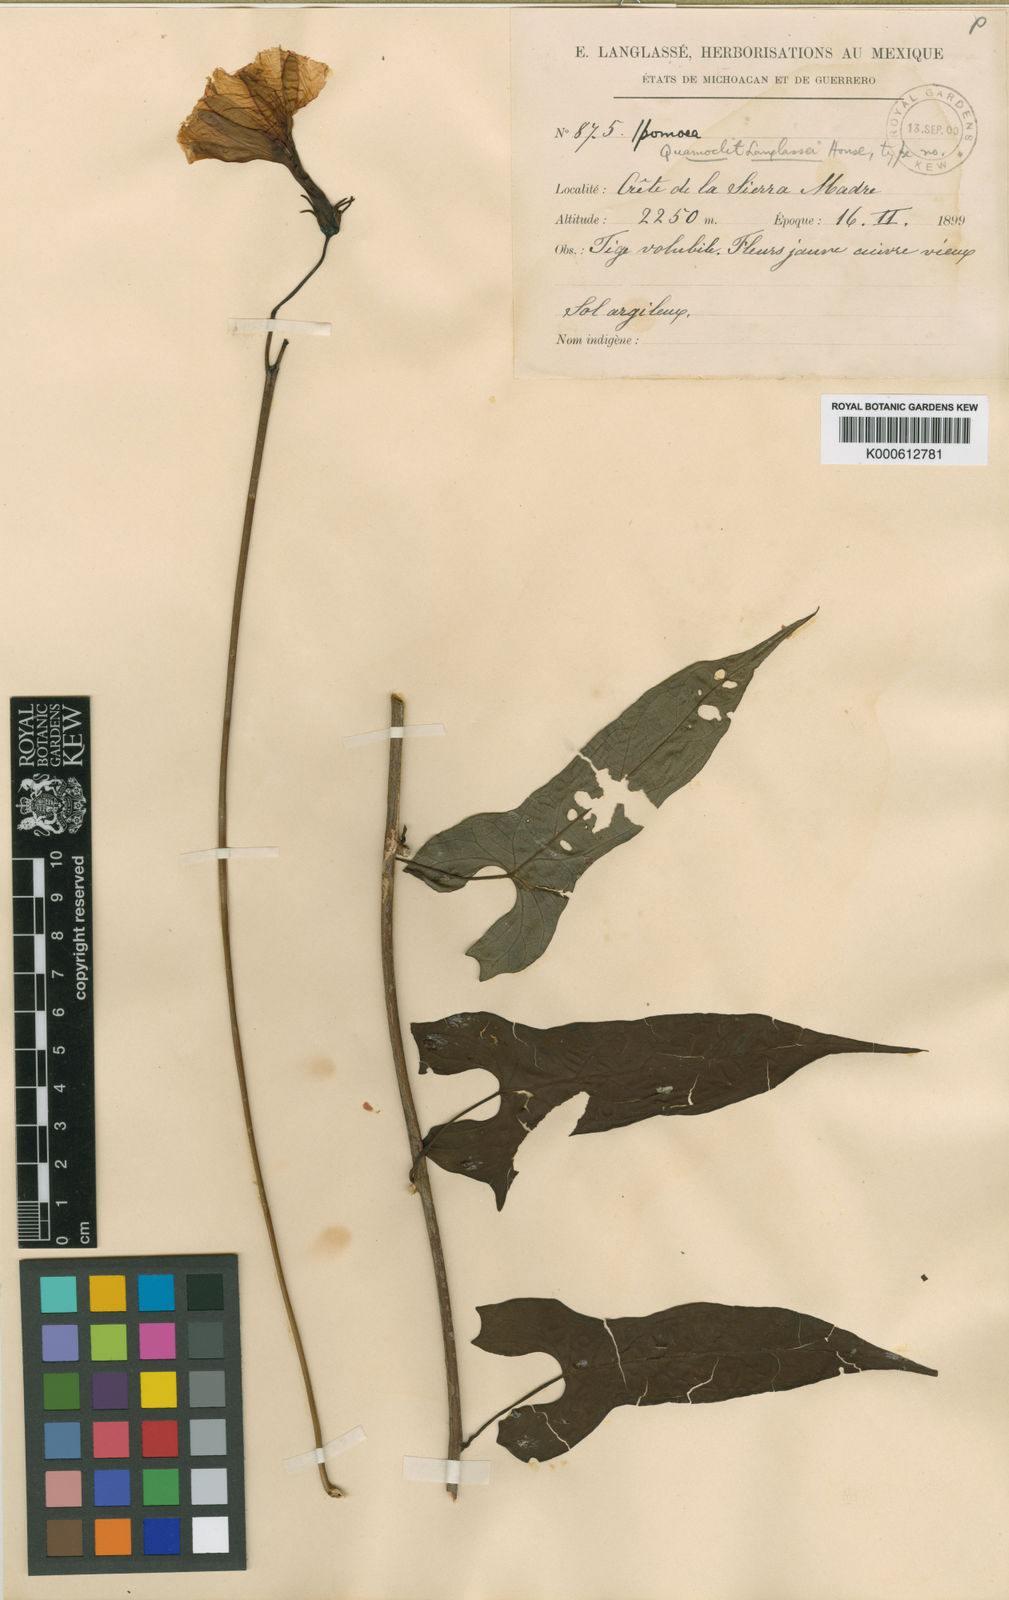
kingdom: Plantae
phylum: Tracheophyta
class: Magnoliopsida
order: Solanales
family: Convolvulaceae
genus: Ipomoea
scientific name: Ipomoea
